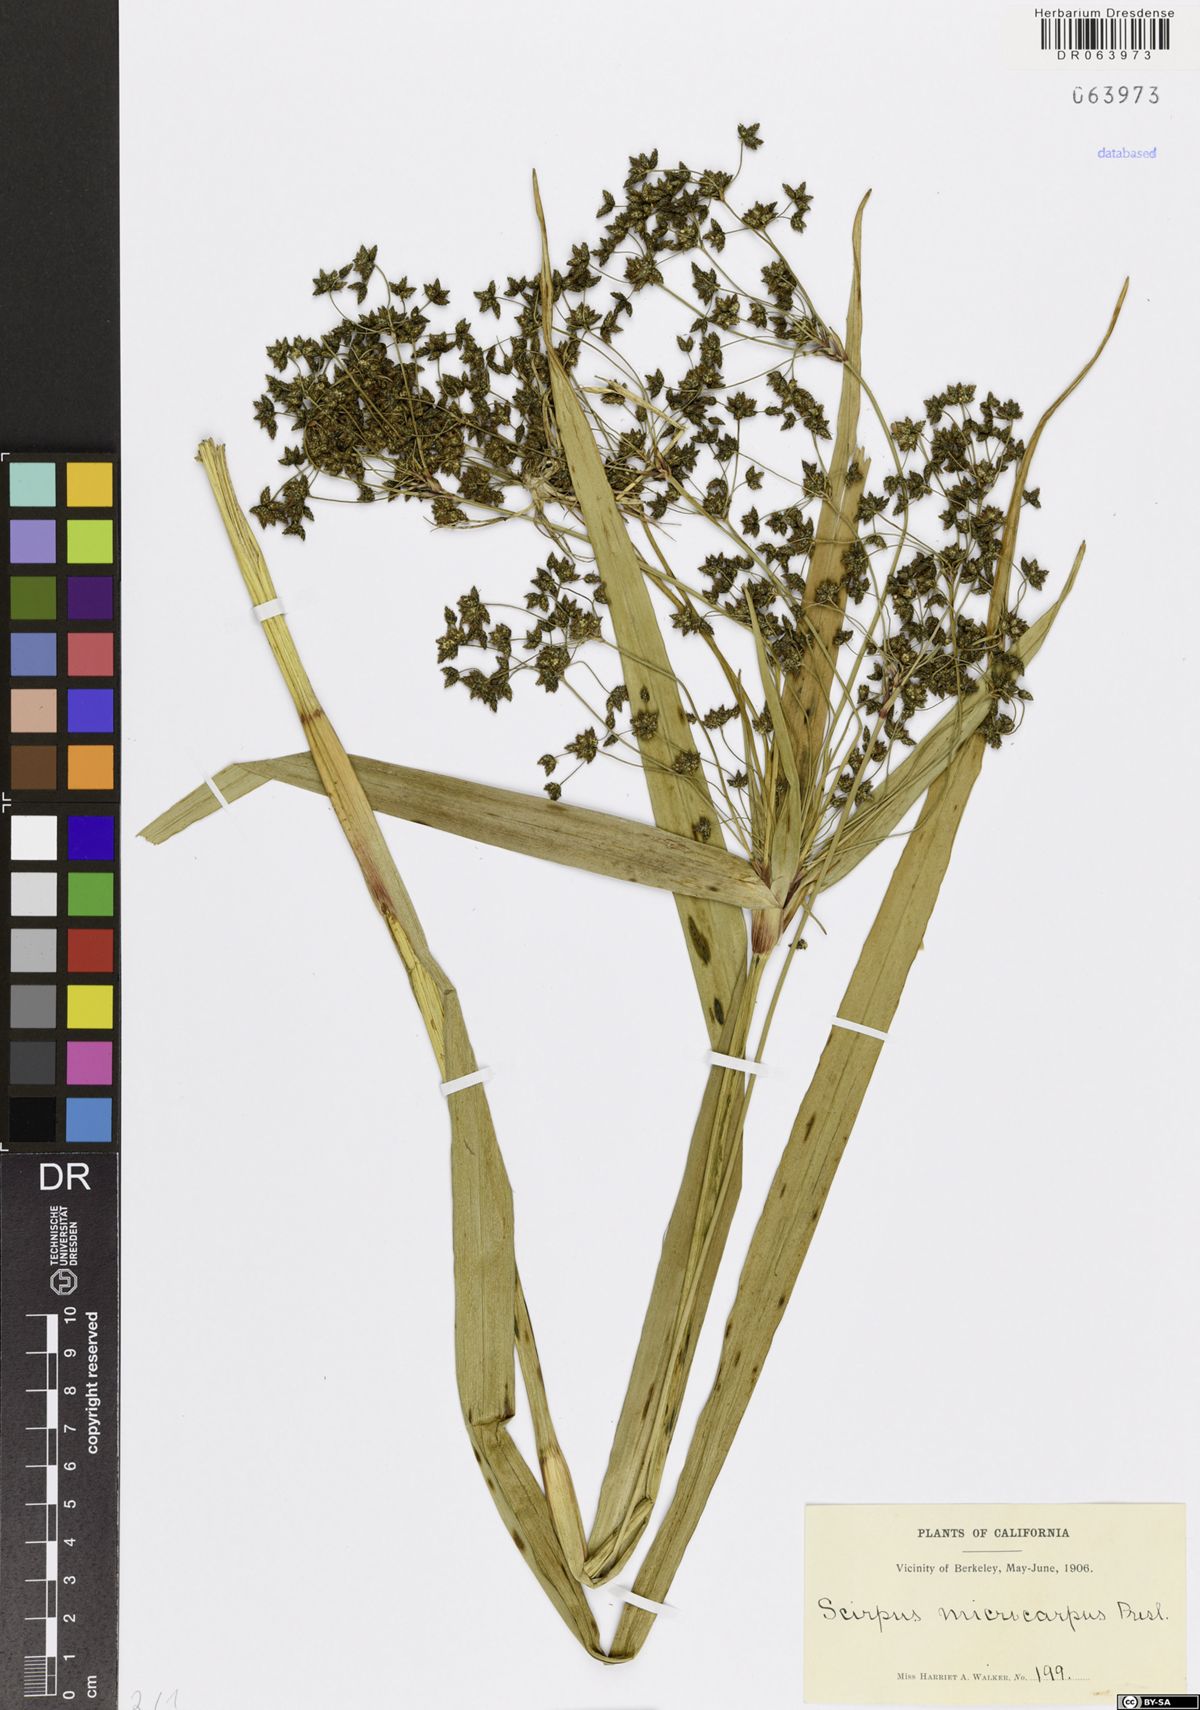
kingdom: Plantae
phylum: Tracheophyta
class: Liliopsida
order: Poales
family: Cyperaceae
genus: Scirpus
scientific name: Scirpus microcarpus
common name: Panicled bulrush
